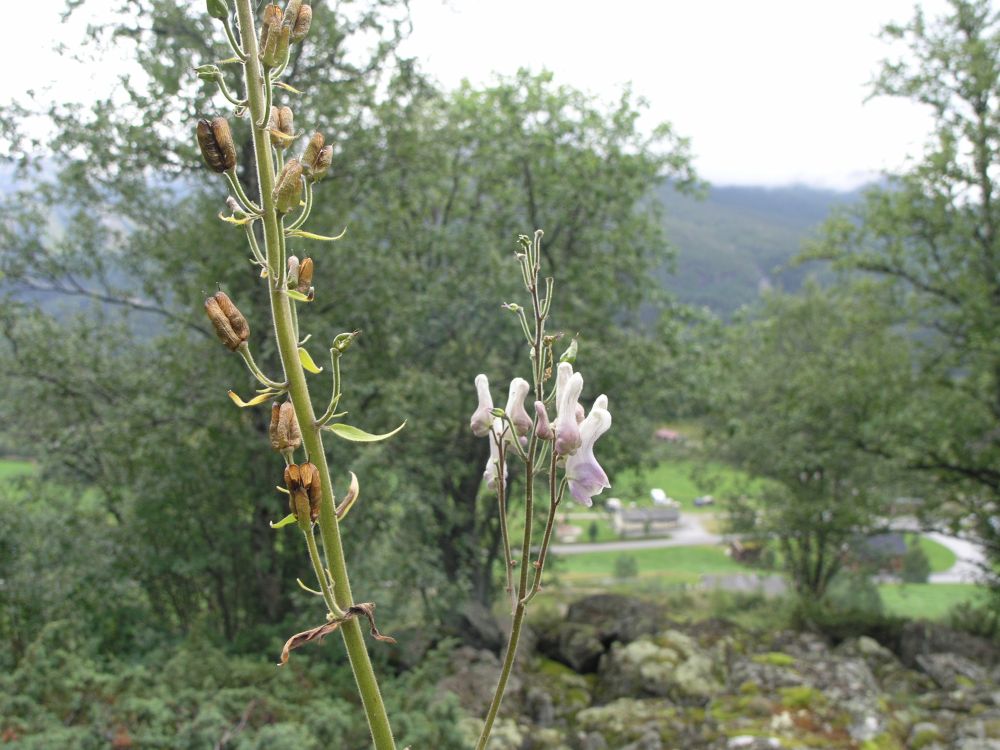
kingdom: Plantae
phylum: Tracheophyta
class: Magnoliopsida
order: Ranunculales
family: Ranunculaceae
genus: Aconitum
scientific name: Aconitum septentrionale
